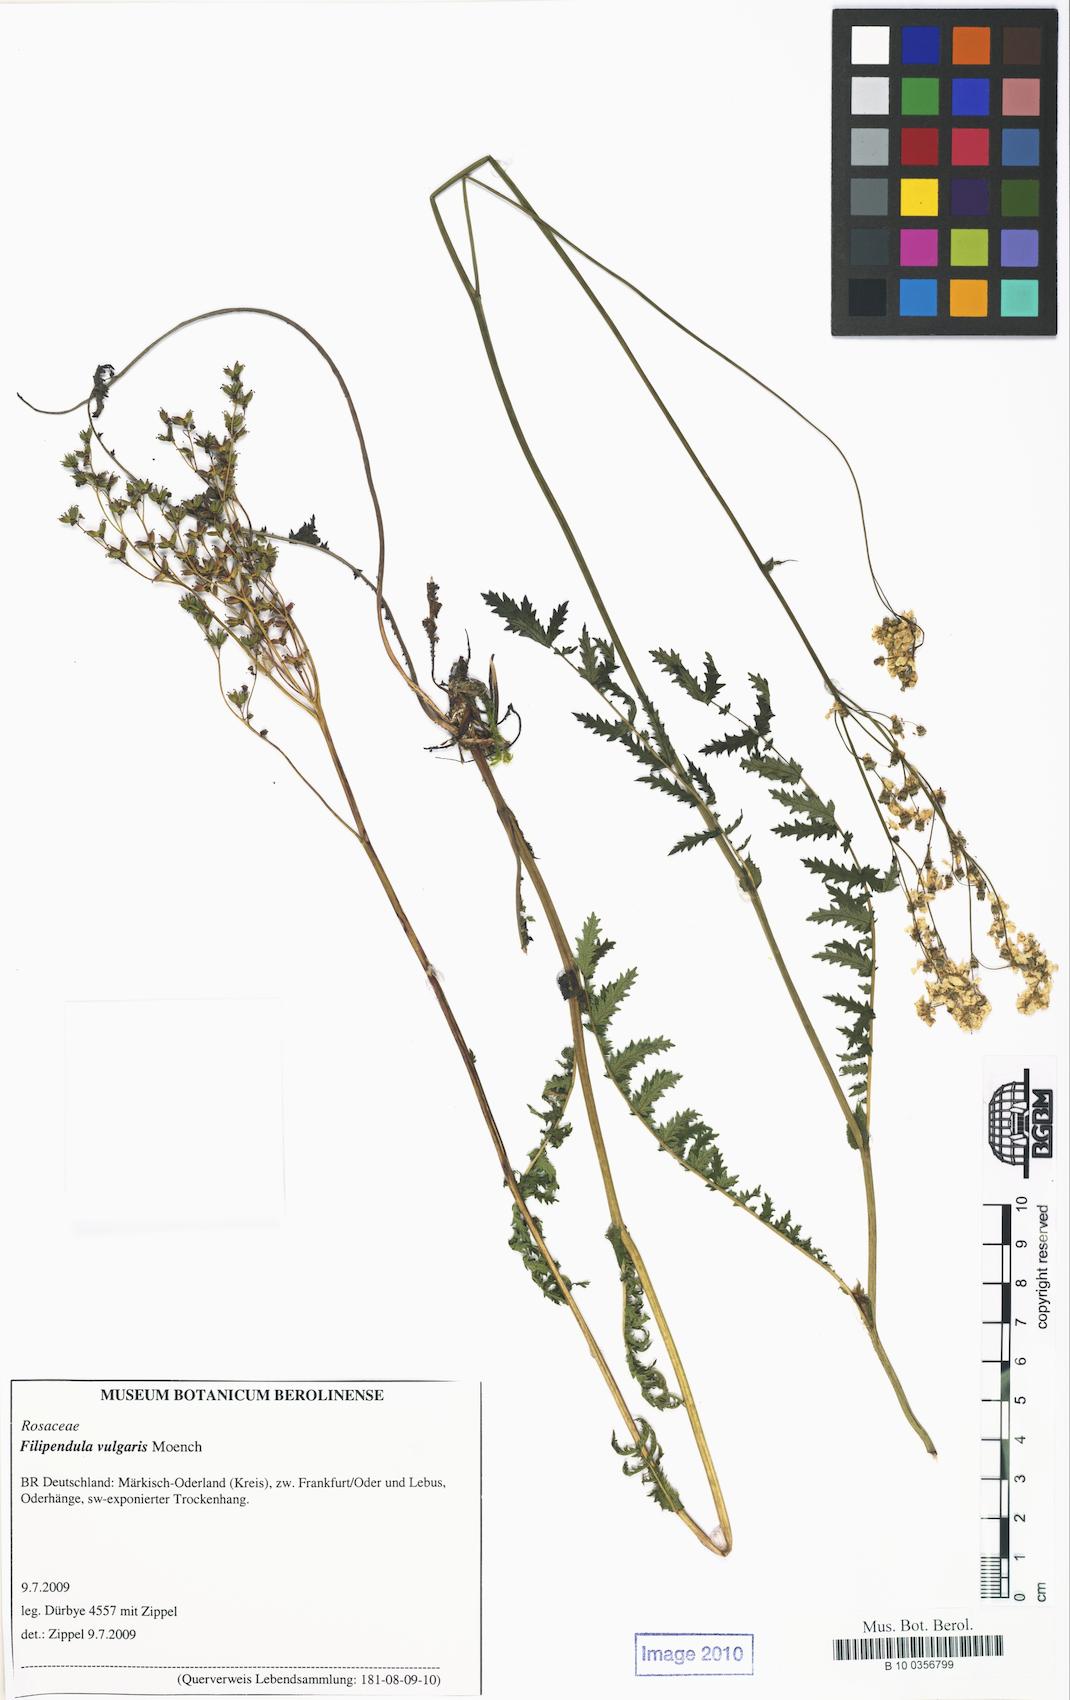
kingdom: Plantae
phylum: Tracheophyta
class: Magnoliopsida
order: Rosales
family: Rosaceae
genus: Filipendula
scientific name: Filipendula vulgaris
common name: Dropwort
